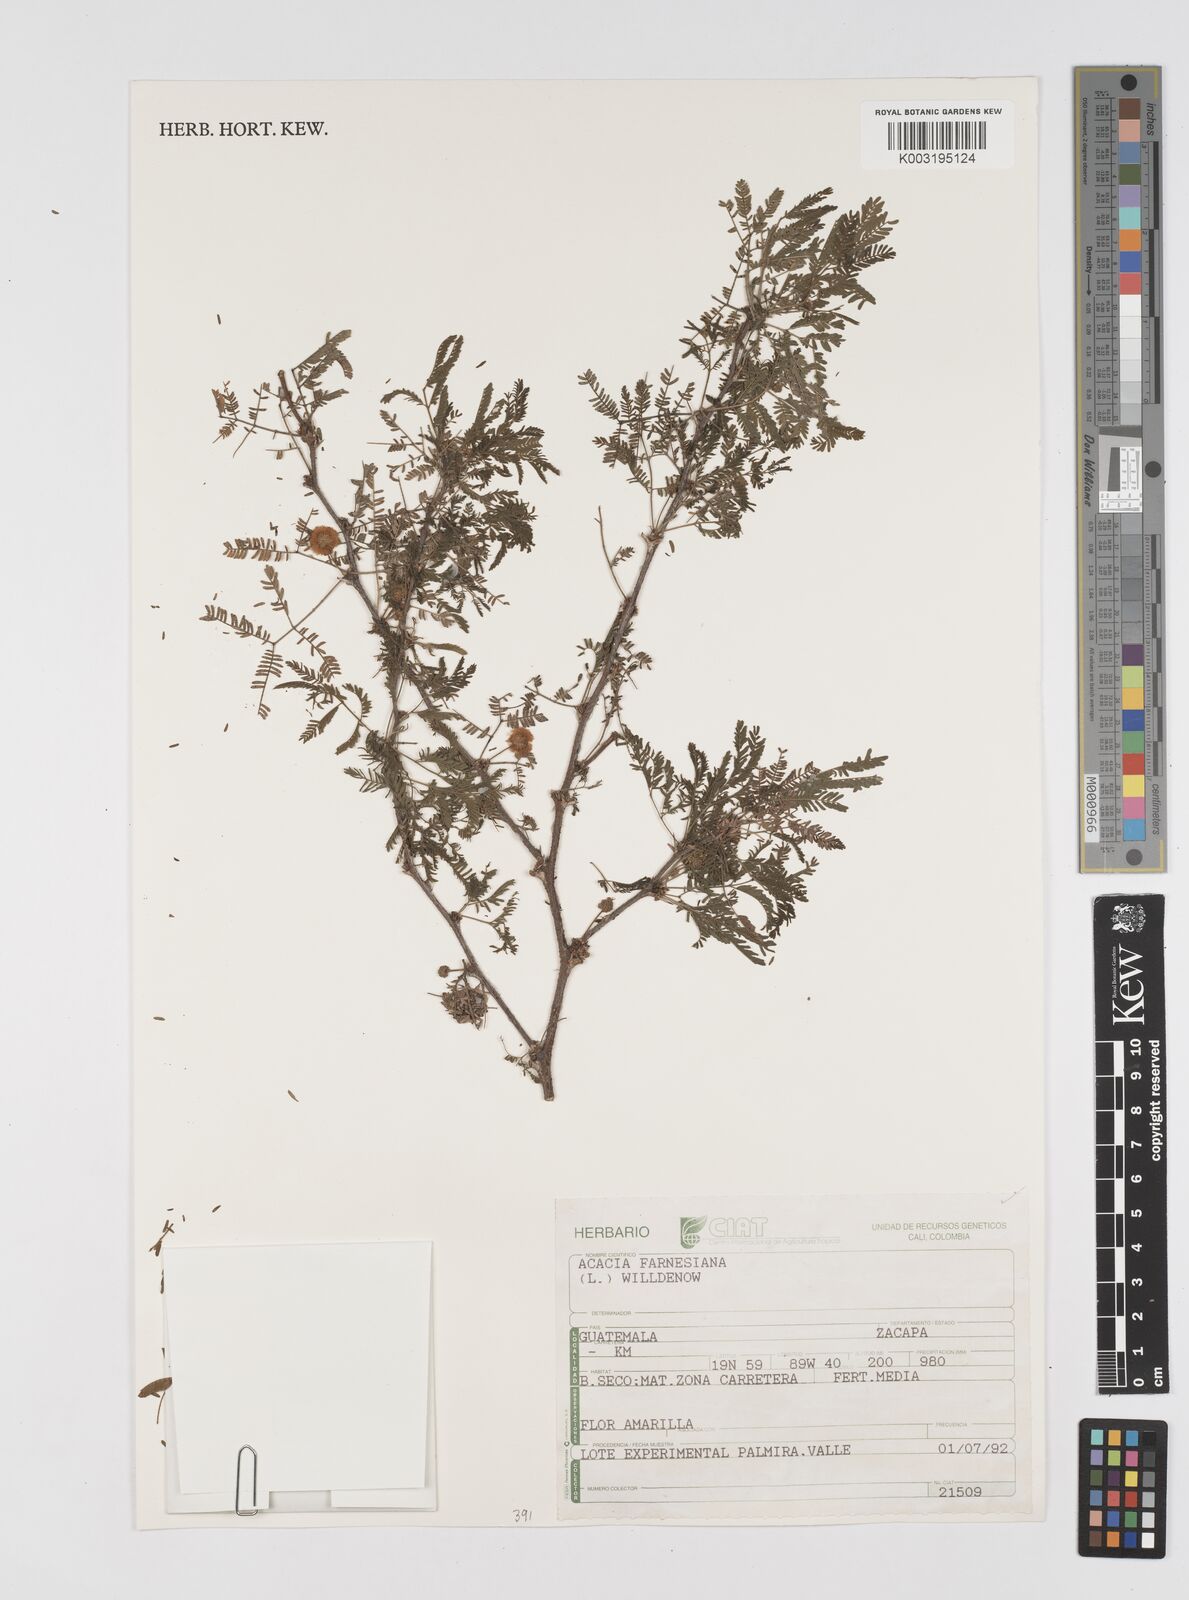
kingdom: Plantae
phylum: Tracheophyta
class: Magnoliopsida
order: Fabales
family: Fabaceae
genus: Vachellia
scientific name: Vachellia farnesiana
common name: Sweet acacia
